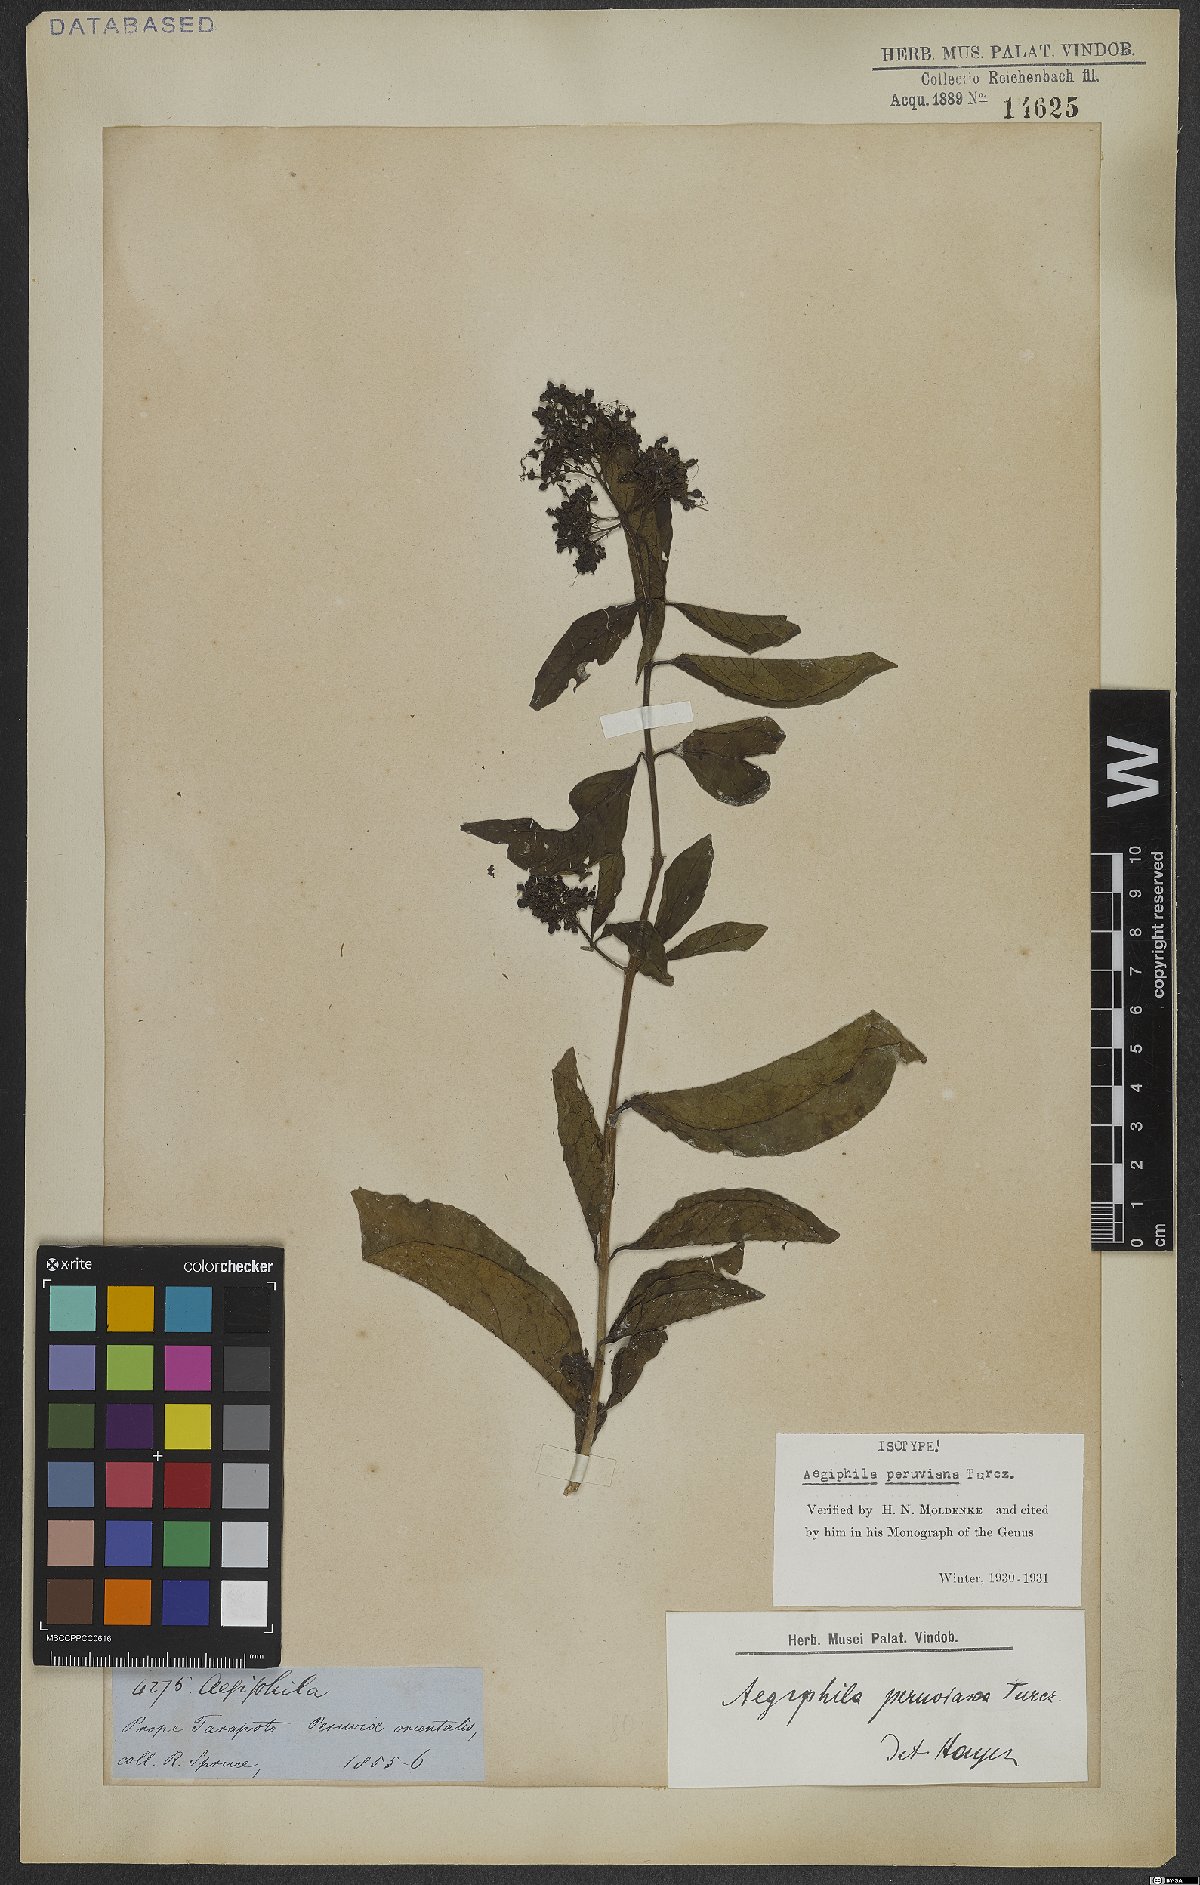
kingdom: Plantae
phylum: Tracheophyta
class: Magnoliopsida
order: Lamiales
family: Lamiaceae
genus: Aegiphila
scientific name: Aegiphila peruviana
